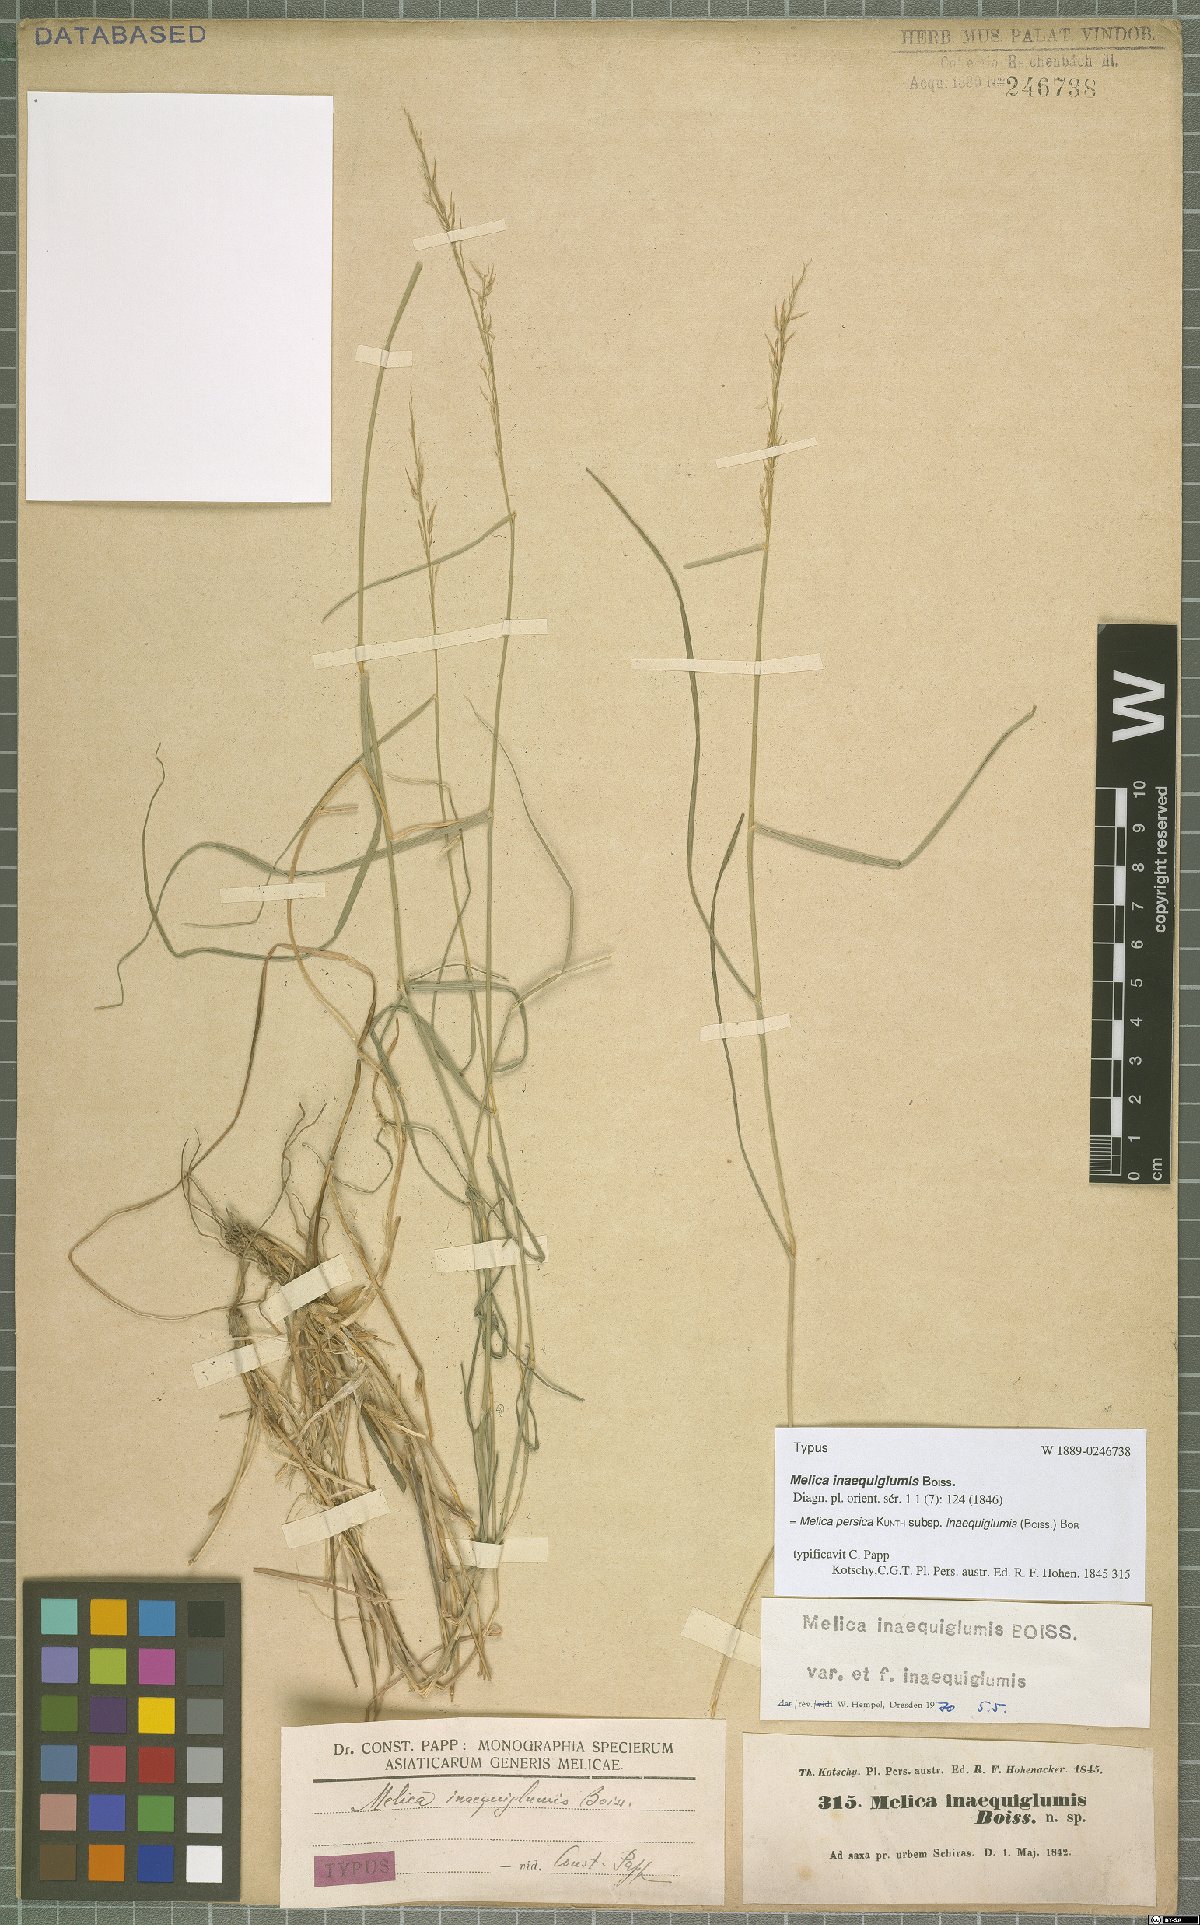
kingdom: Plantae
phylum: Tracheophyta
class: Liliopsida
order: Poales
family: Poaceae
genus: Melica
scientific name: Melica persica
